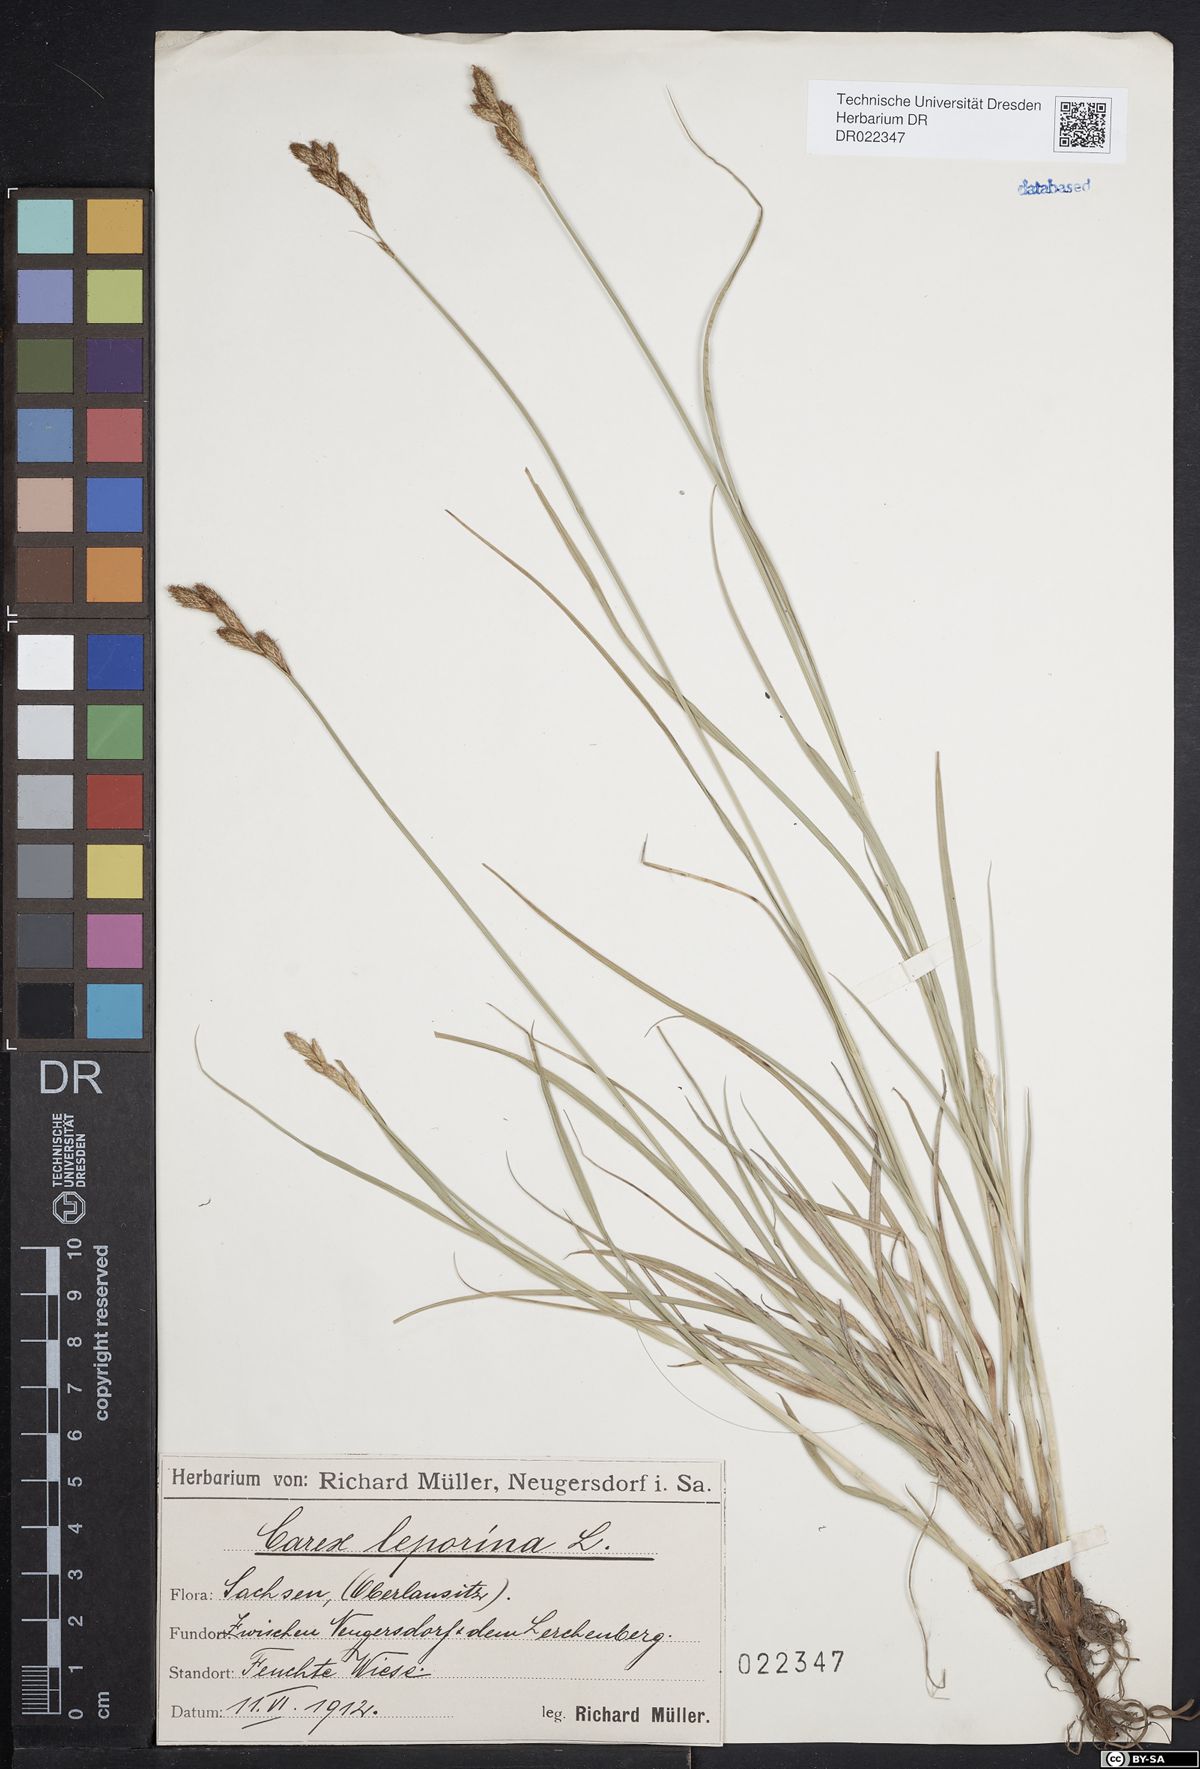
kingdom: Plantae
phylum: Tracheophyta
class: Liliopsida
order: Poales
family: Cyperaceae
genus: Carex
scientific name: Carex leporina
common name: Oval sedge
